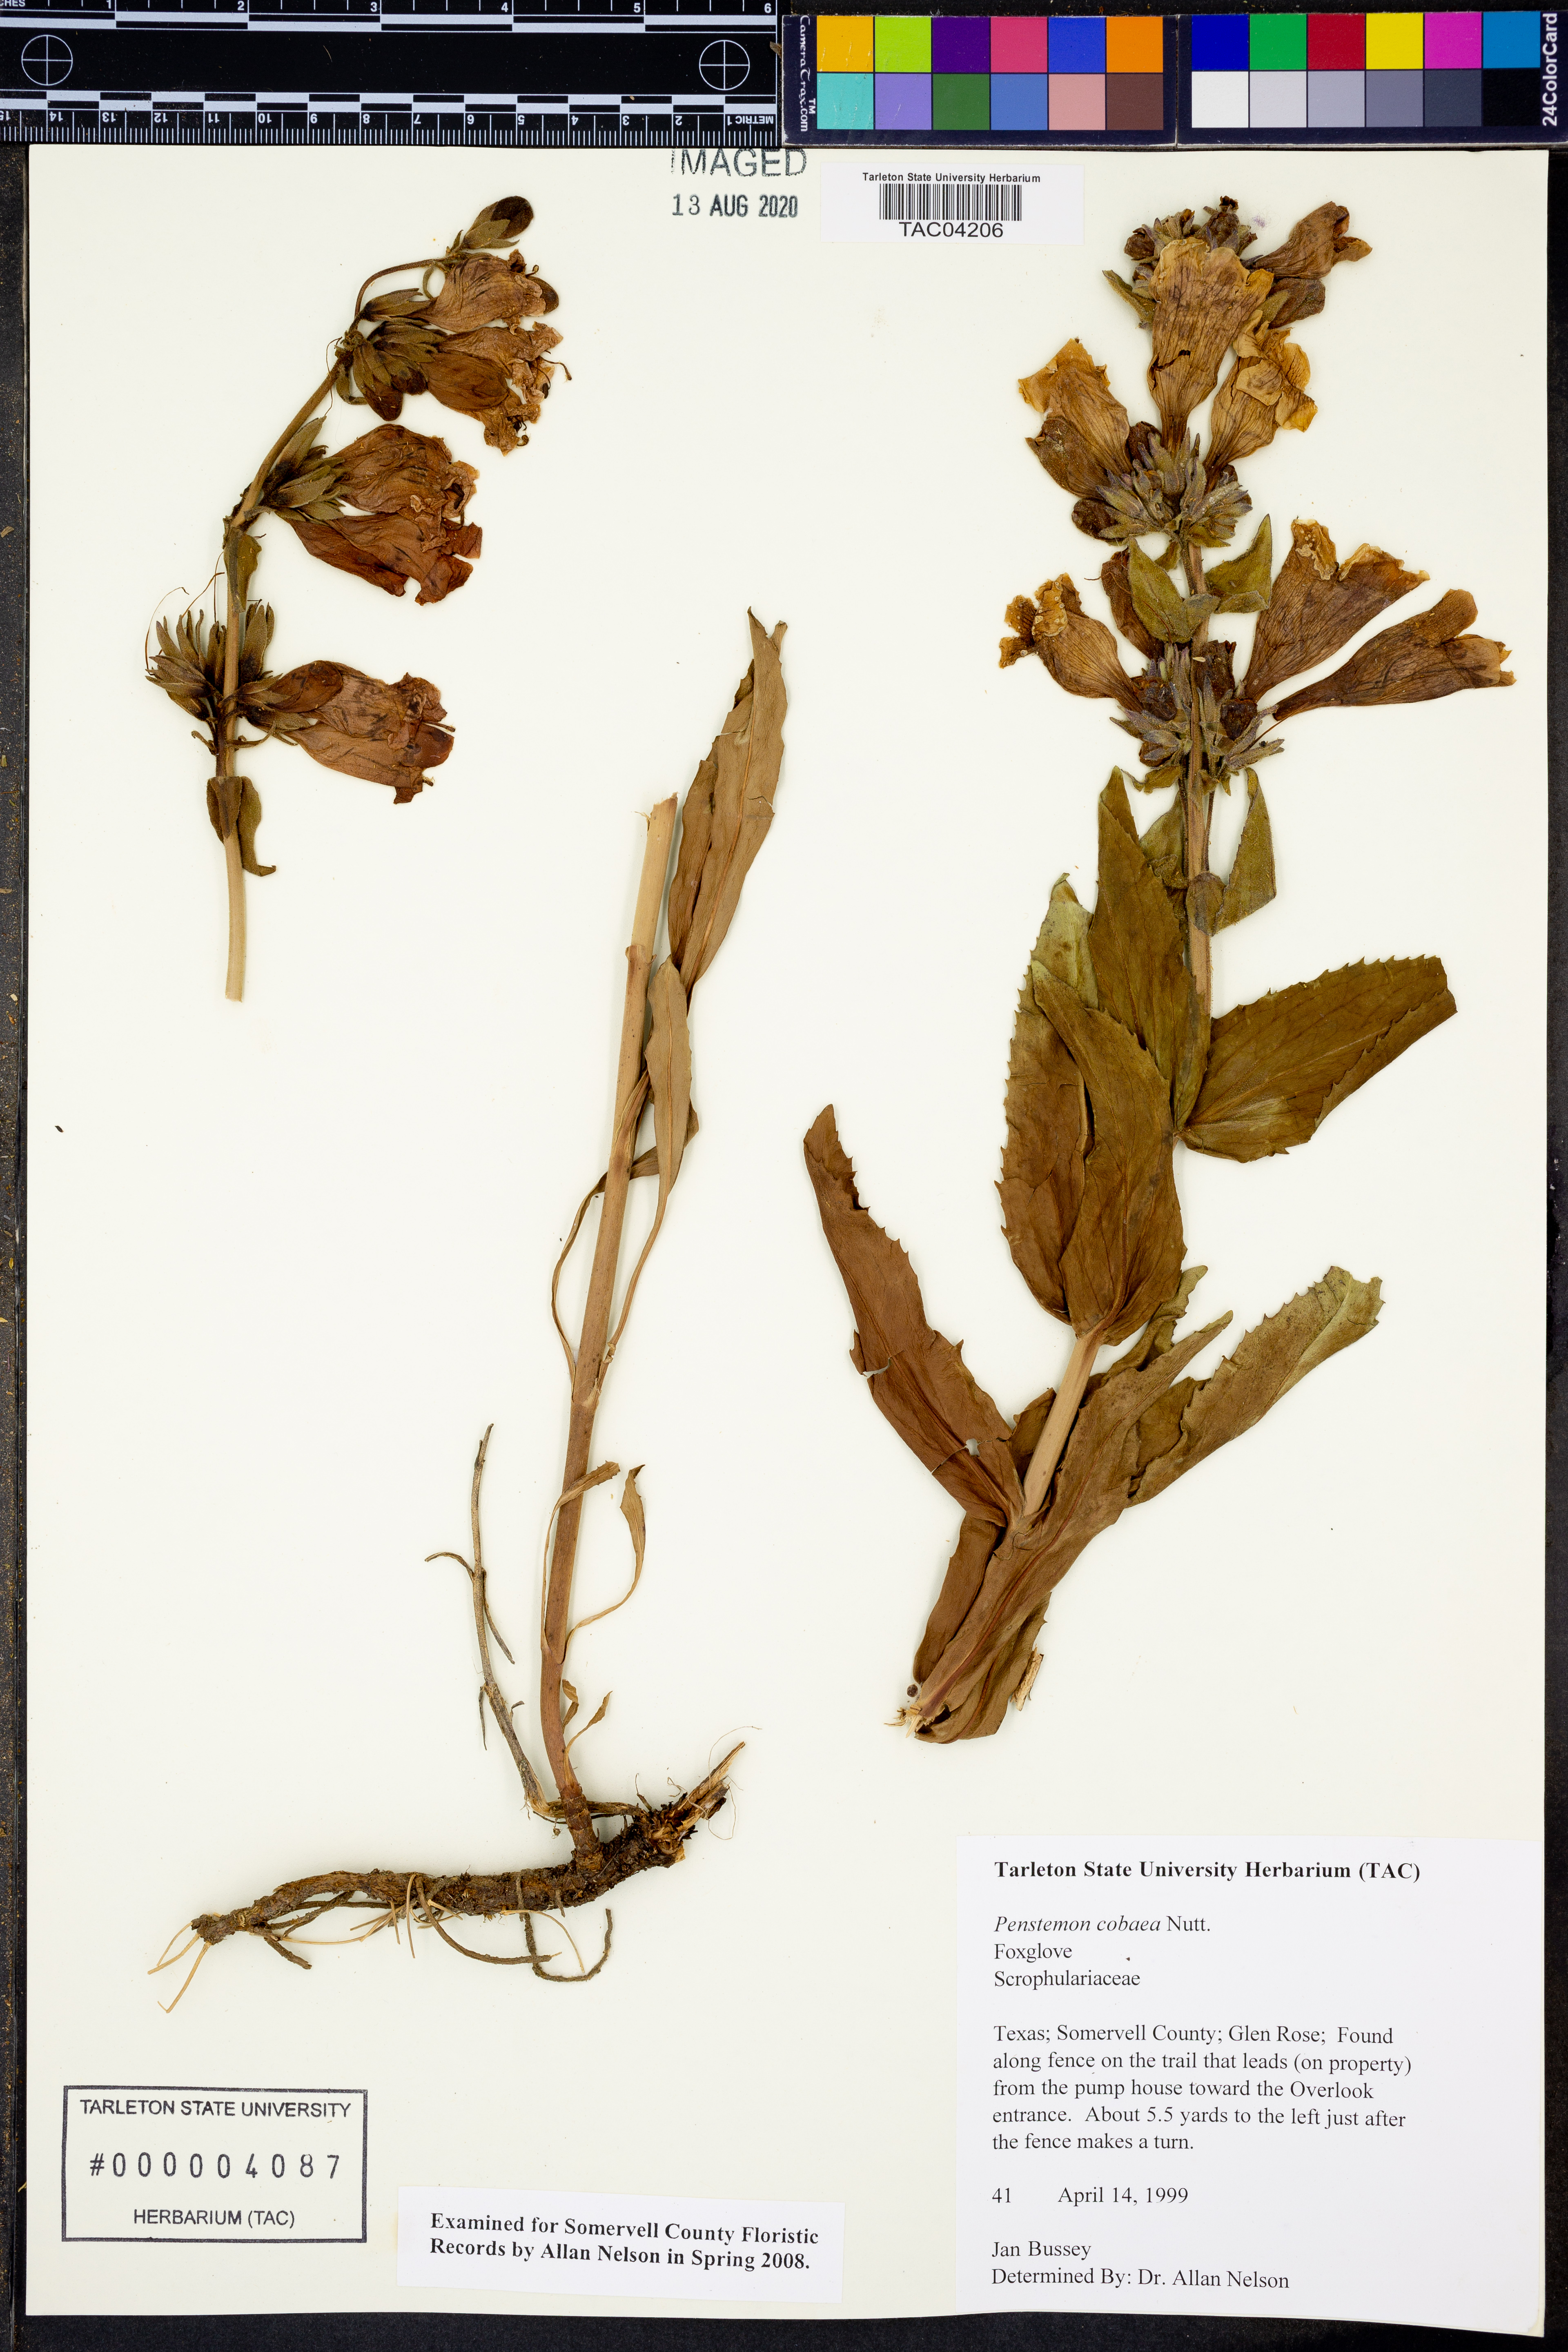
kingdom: Plantae
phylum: Tracheophyta
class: Magnoliopsida
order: Lamiales
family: Plantaginaceae
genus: Penstemon
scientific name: Penstemon cobaea
